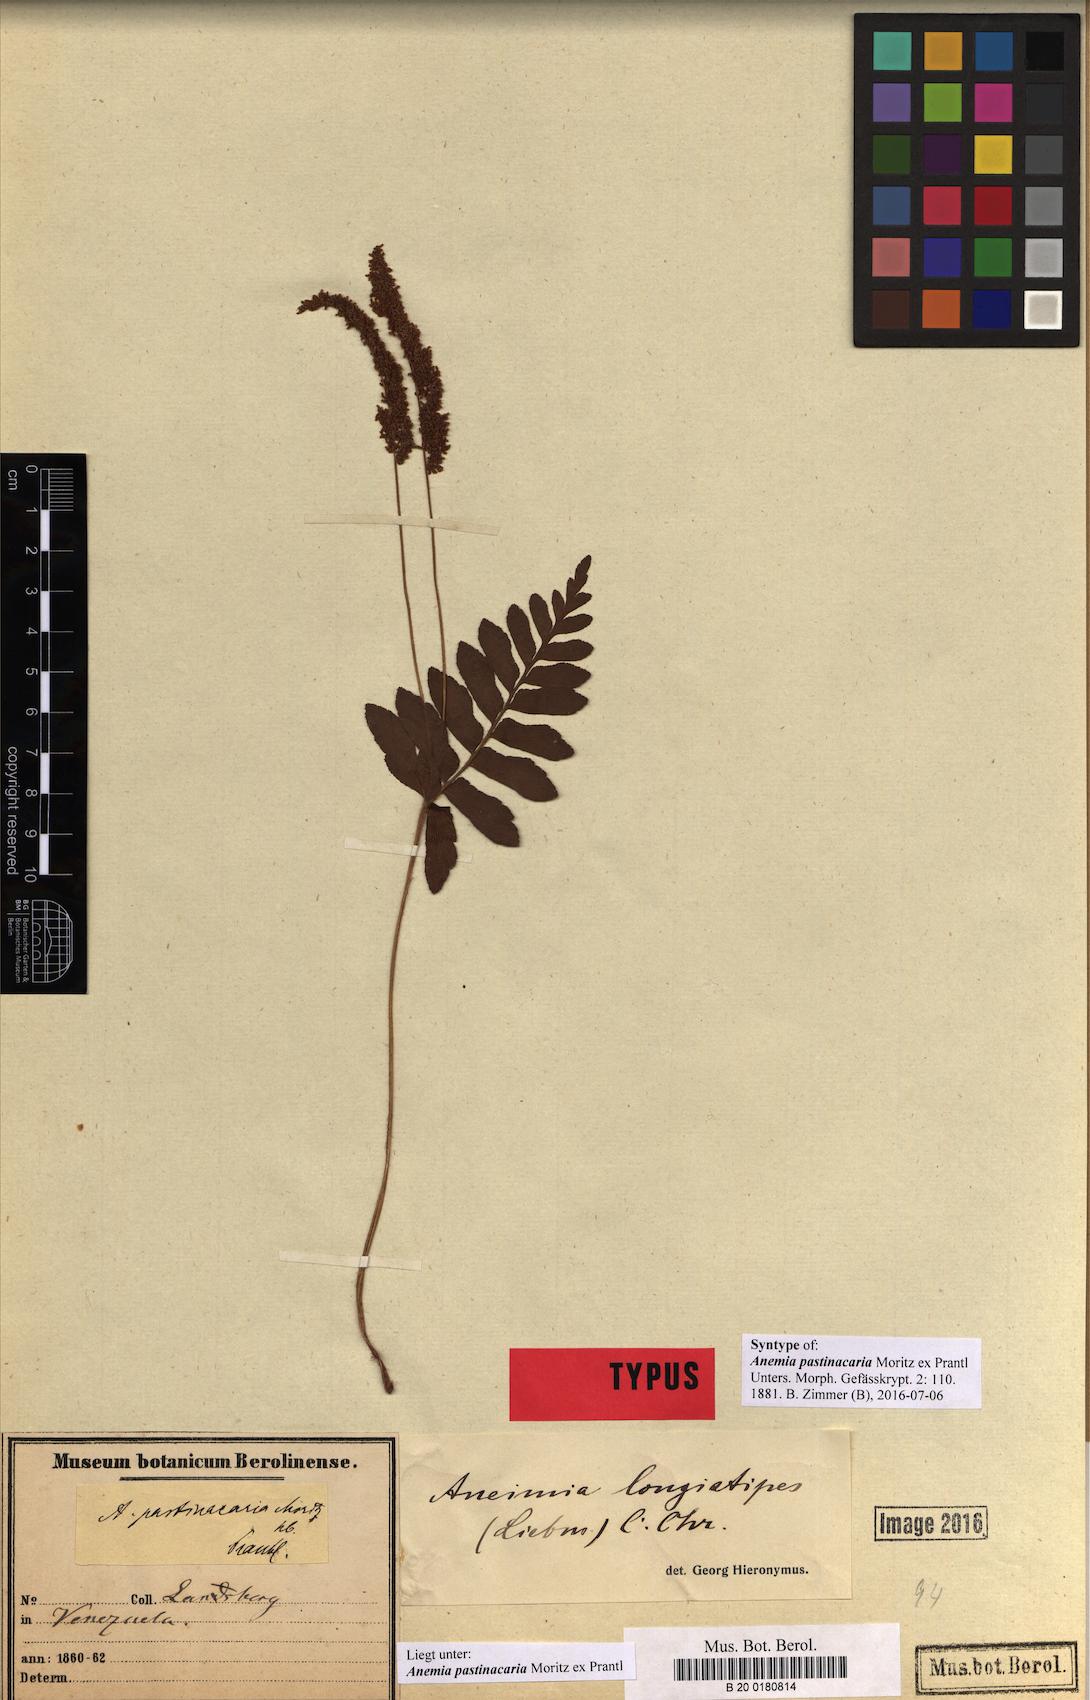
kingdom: Plantae
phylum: Tracheophyta
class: Polypodiopsida
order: Schizaeales
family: Anemiaceae
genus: Anemia
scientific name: Anemia hispida
